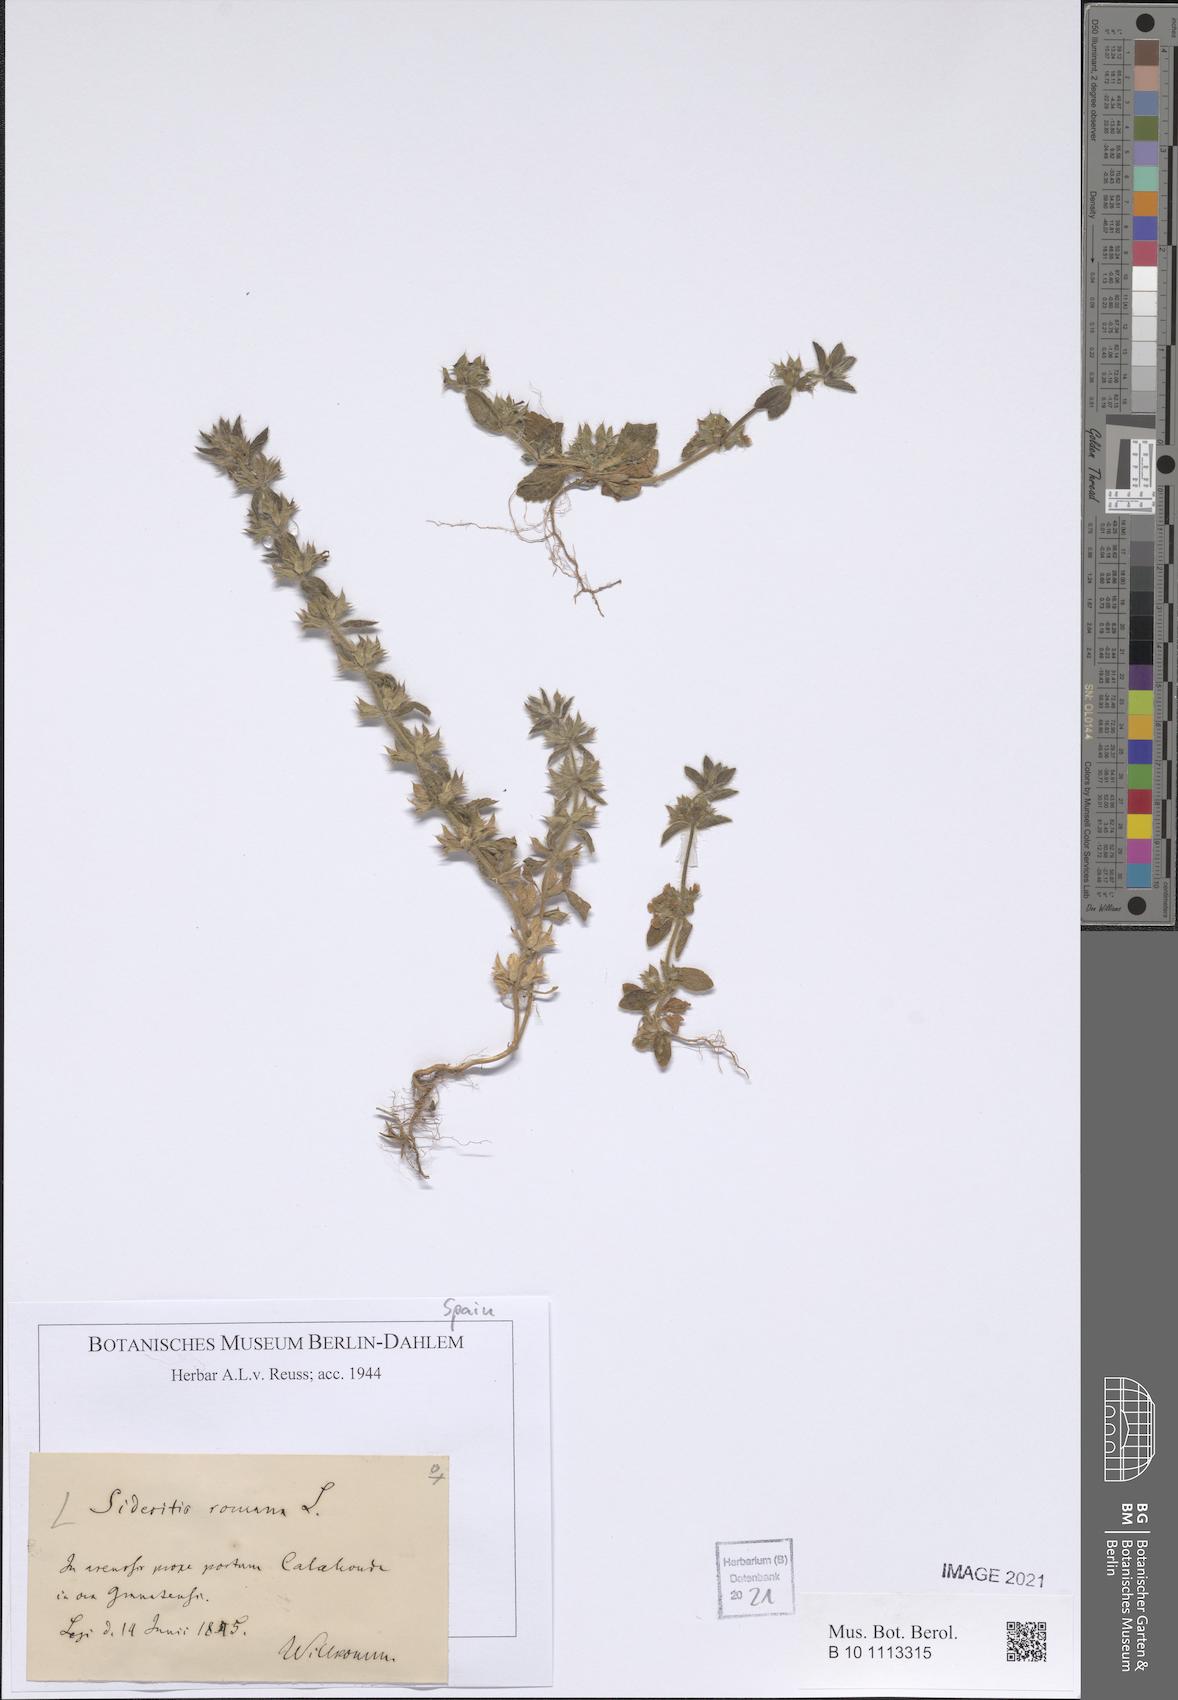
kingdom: Plantae
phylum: Tracheophyta
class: Magnoliopsida
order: Lamiales
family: Lamiaceae
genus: Sideritis
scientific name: Sideritis romana
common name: Simplebeak ironwort
